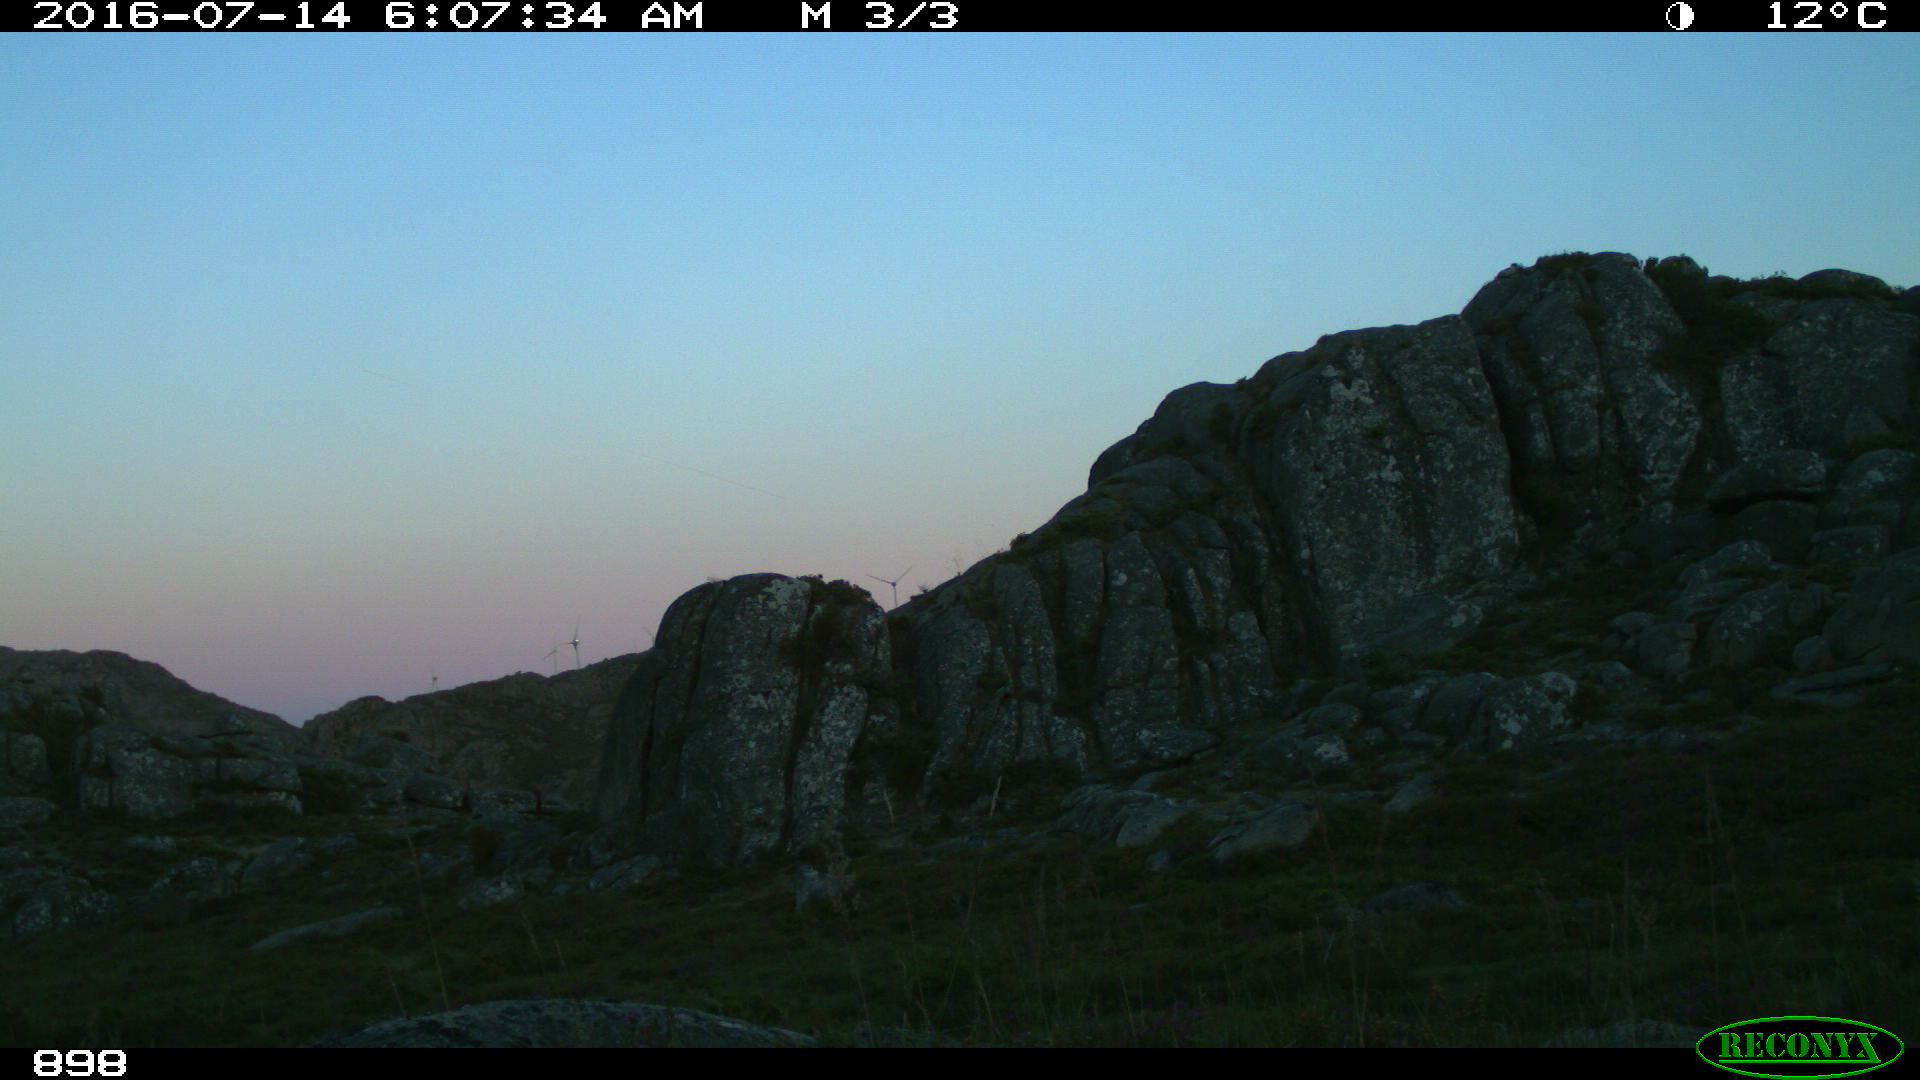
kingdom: Animalia
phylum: Chordata
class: Mammalia
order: Perissodactyla
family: Equidae
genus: Equus
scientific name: Equus caballus
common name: Horse
